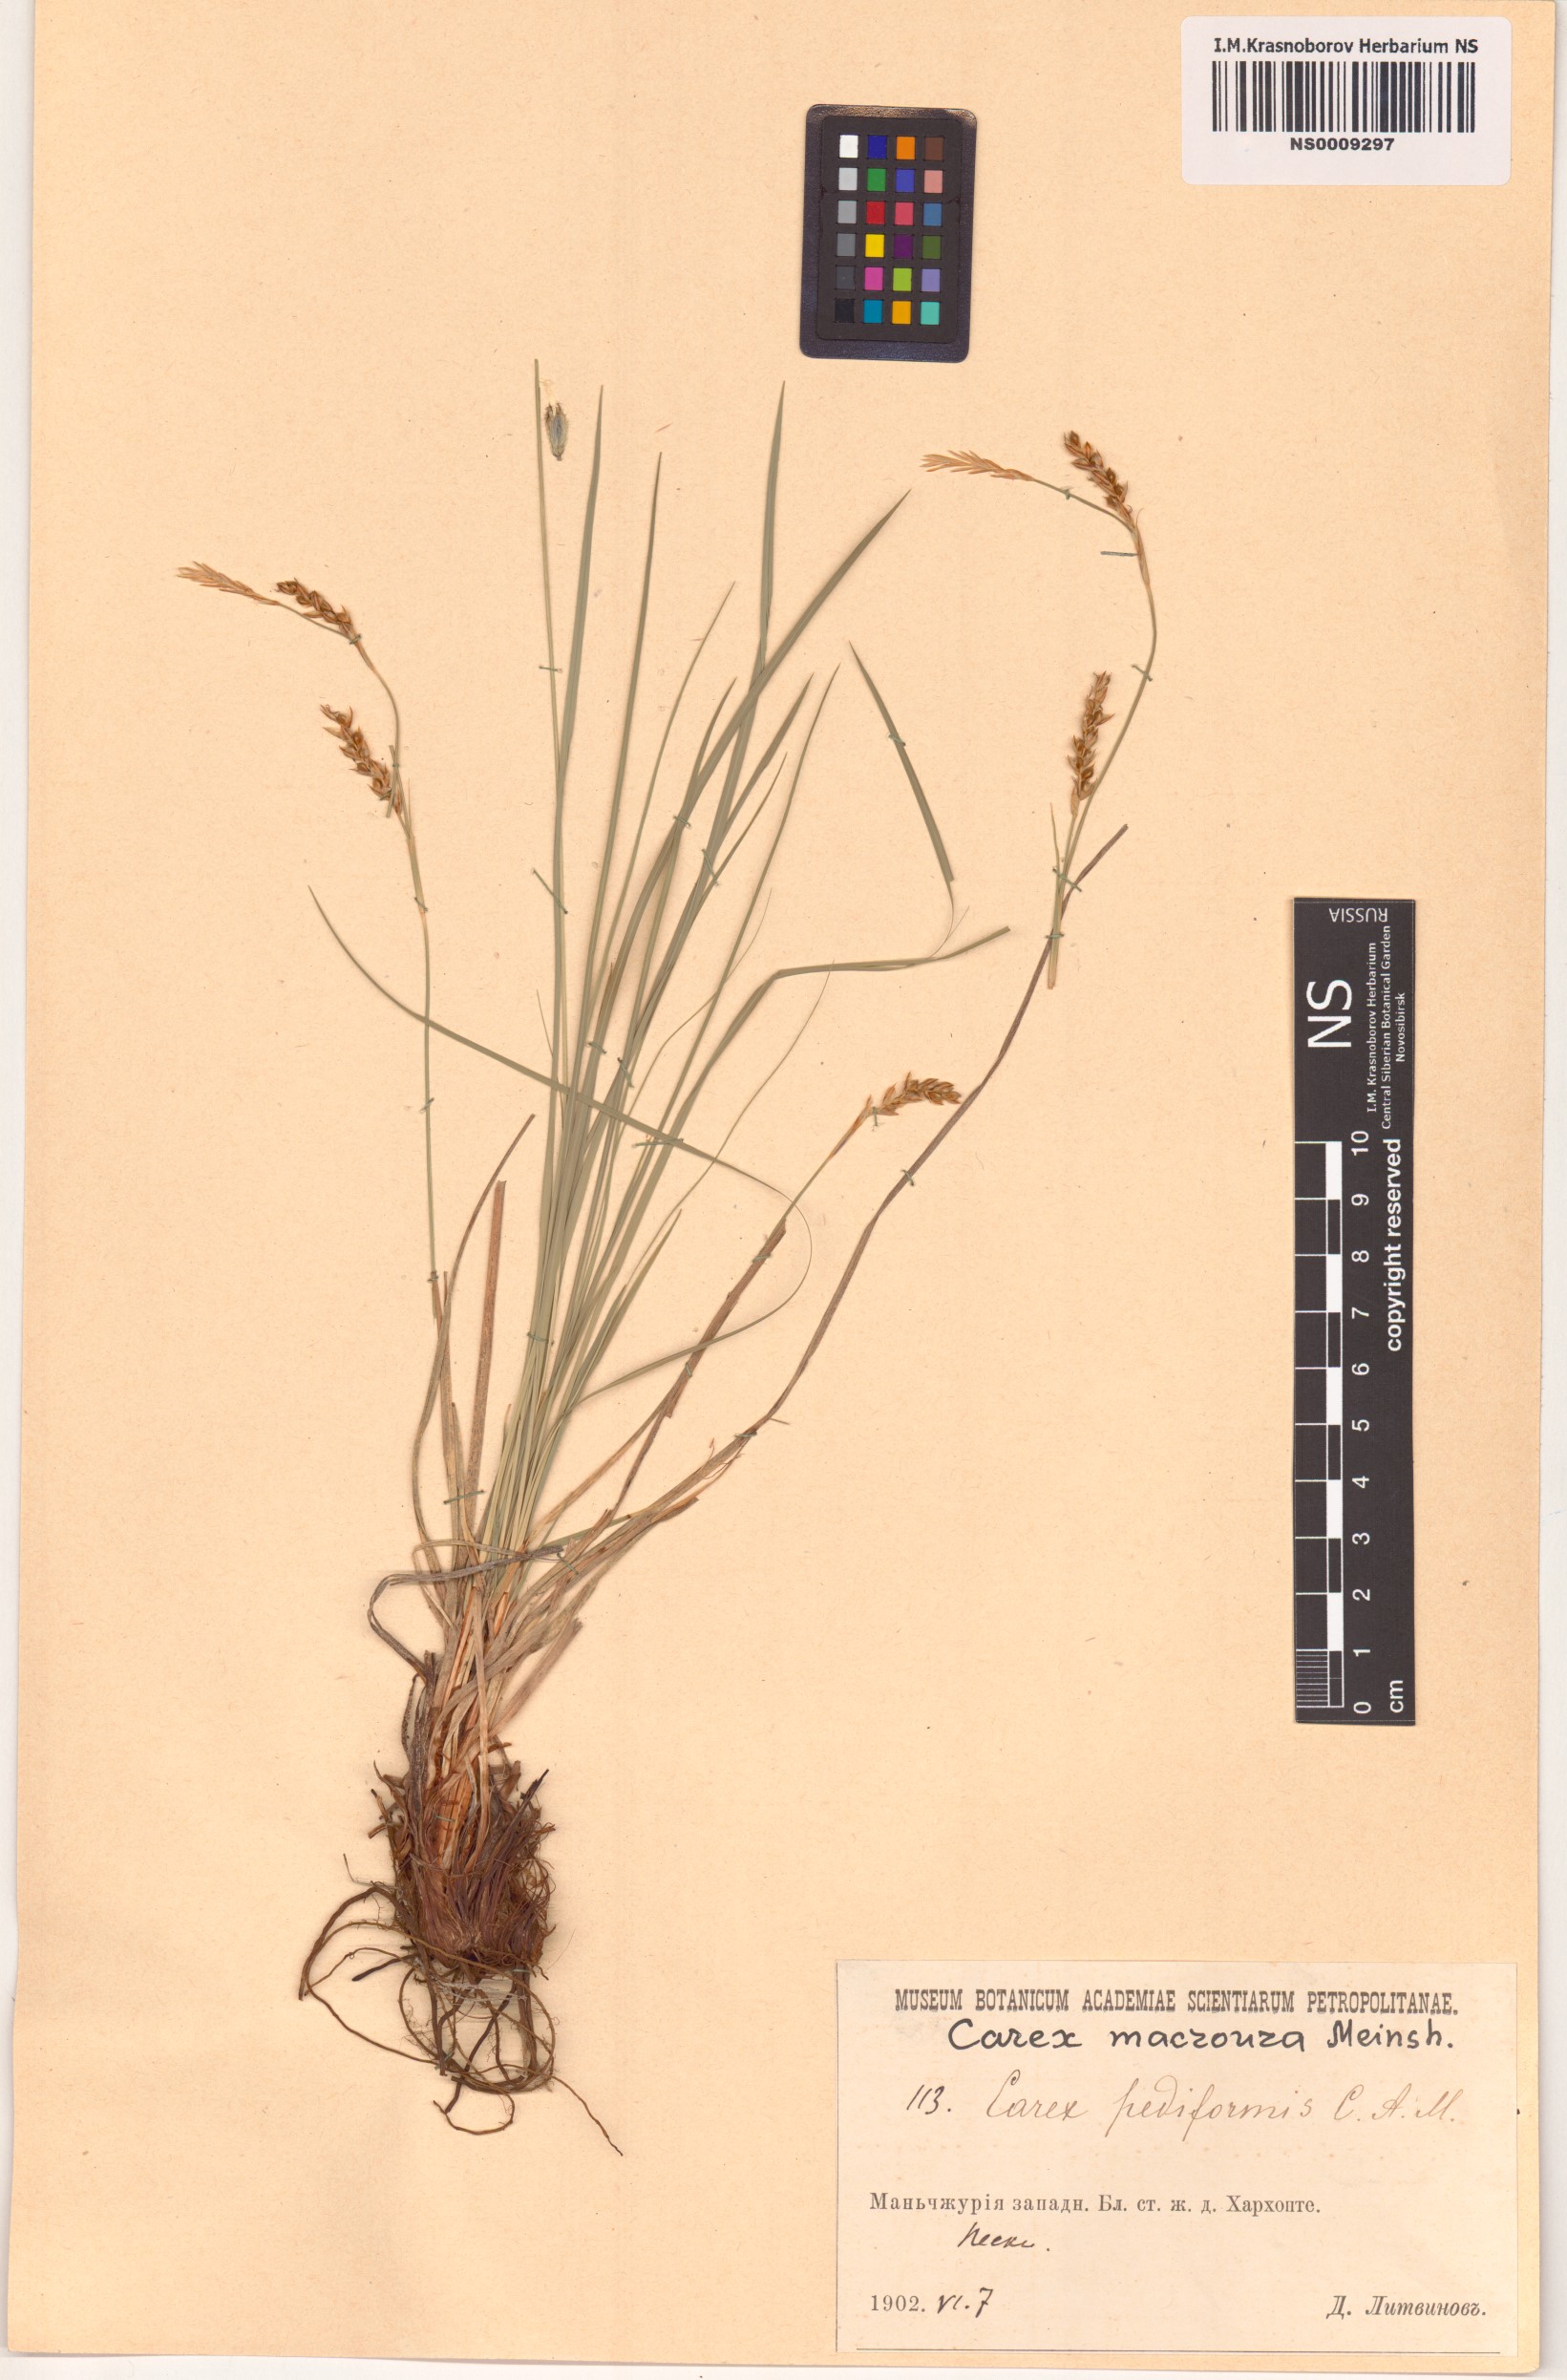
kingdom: Plantae
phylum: Tracheophyta
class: Liliopsida
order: Poales
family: Cyperaceae
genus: Carex
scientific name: Carex pediformis
